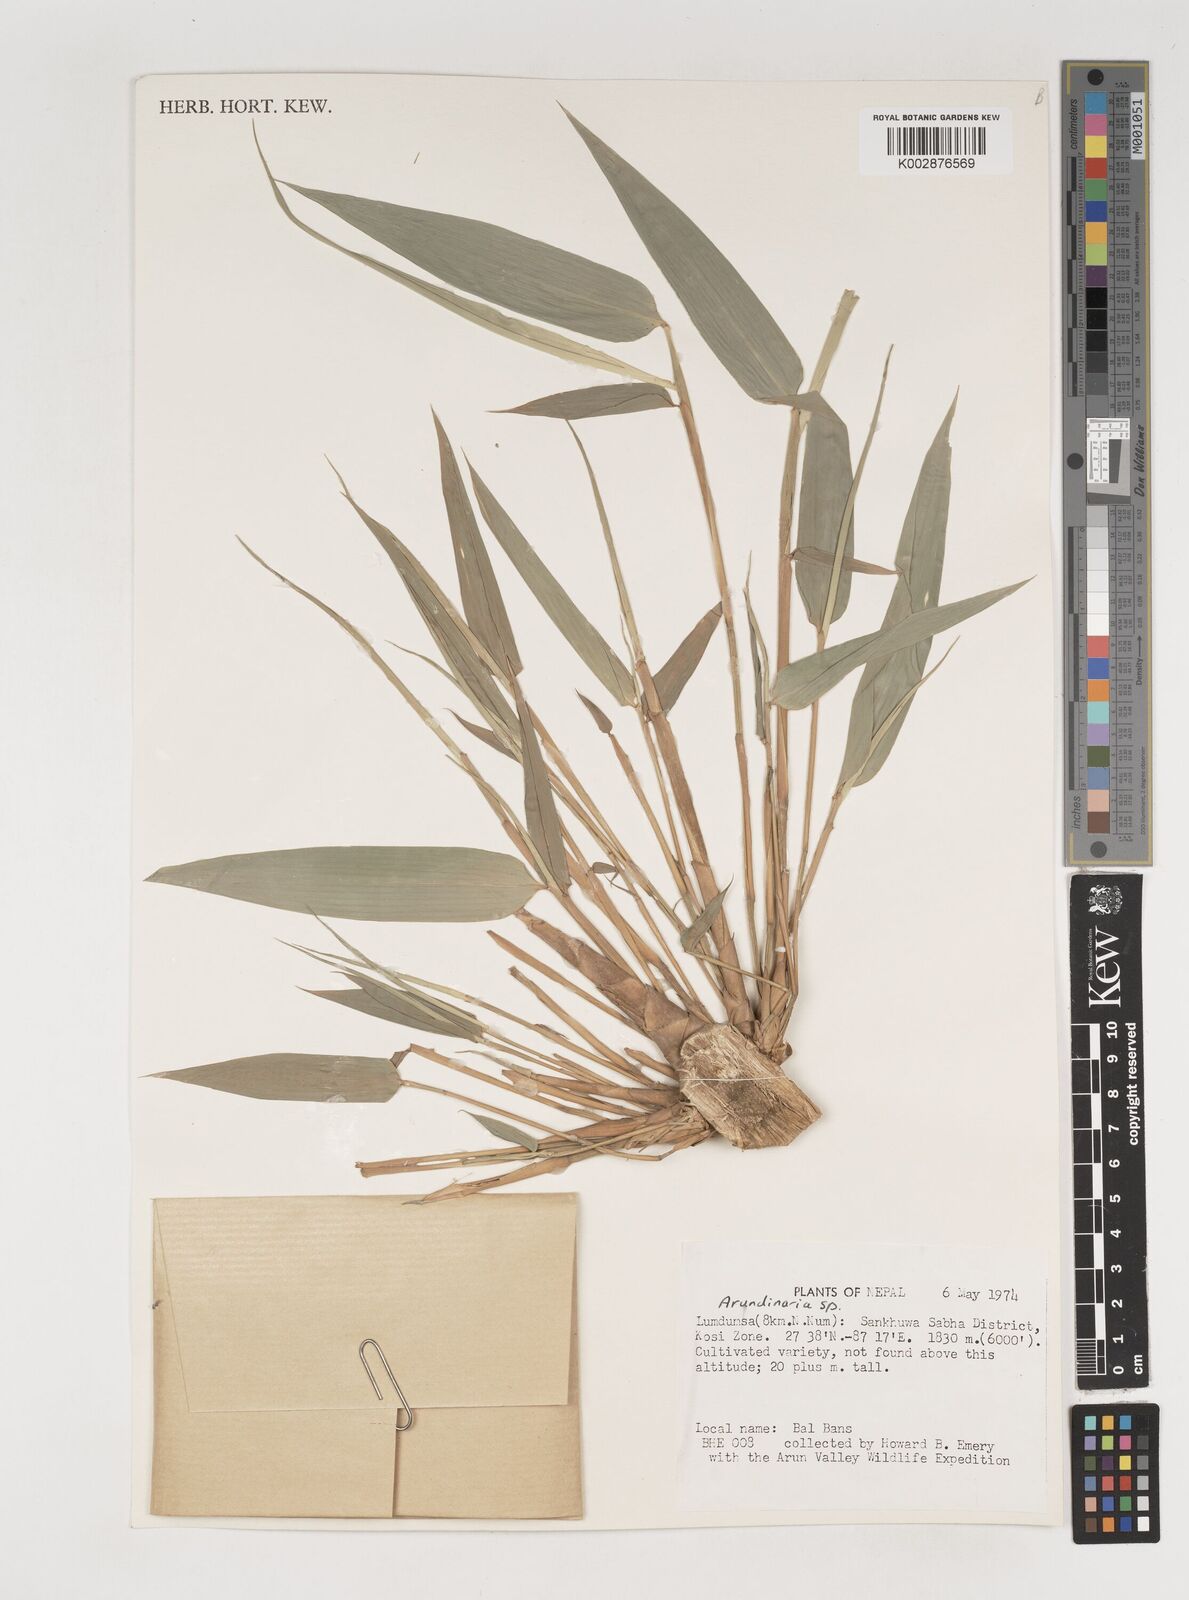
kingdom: Plantae
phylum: Tracheophyta
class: Liliopsida
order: Poales
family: Poaceae
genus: Bambusa
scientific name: Bambusa nepalensis
